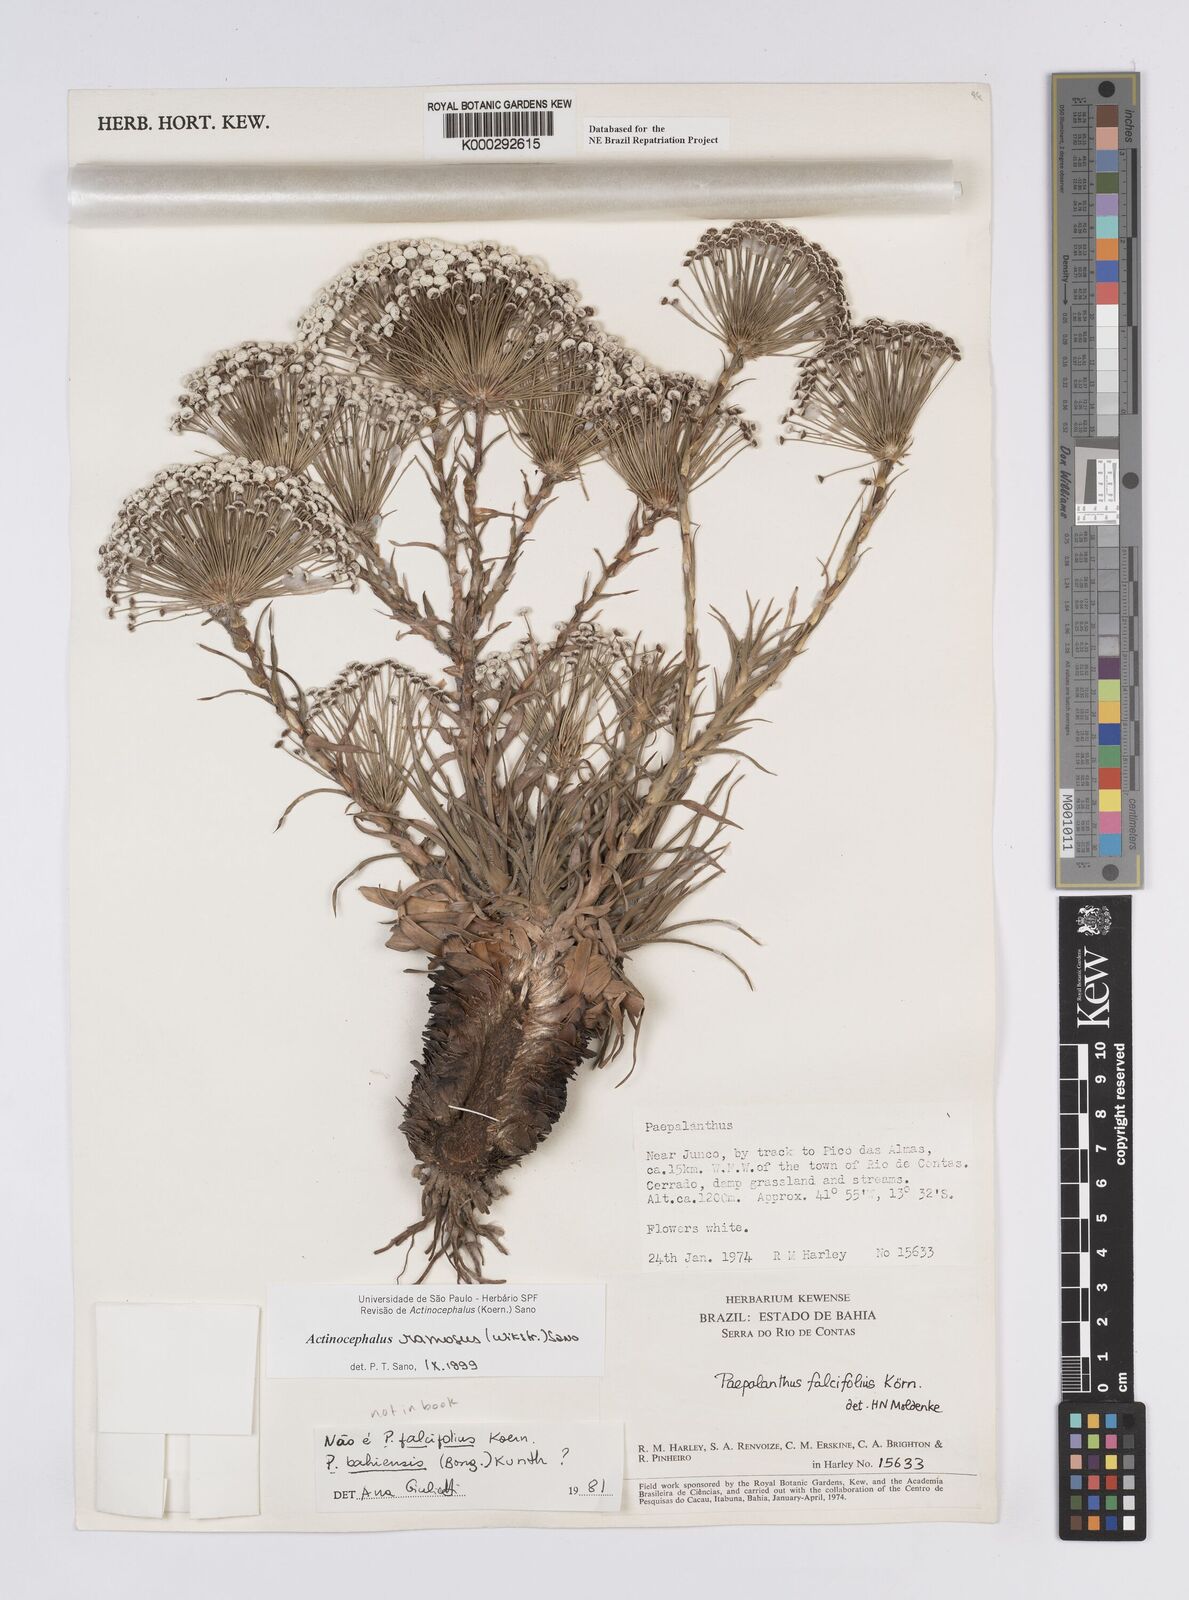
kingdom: Plantae
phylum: Tracheophyta
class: Liliopsida
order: Poales
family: Eriocaulaceae
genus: Paepalanthus
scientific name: Paepalanthus ramosus
